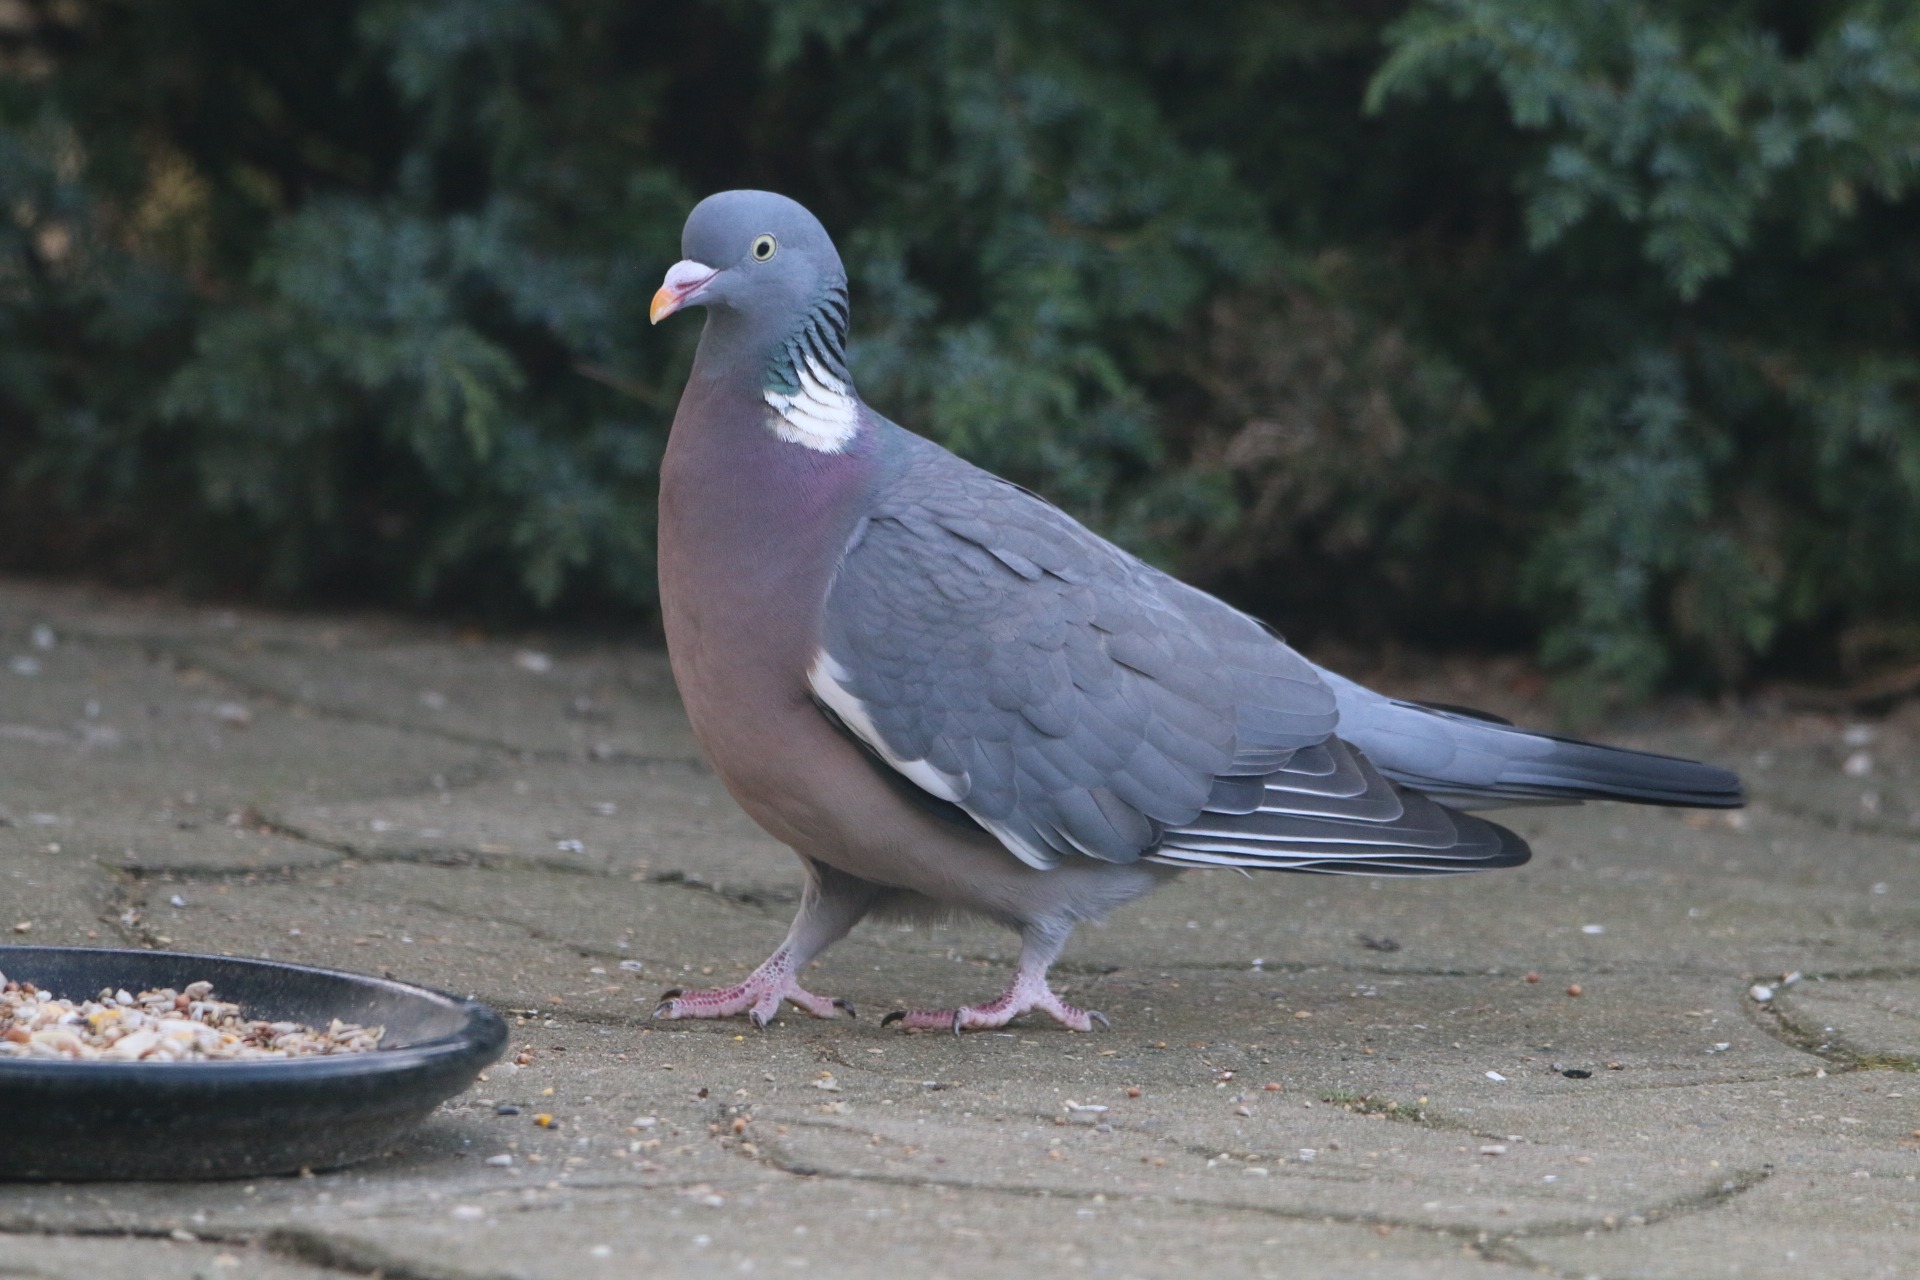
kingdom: Animalia
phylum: Chordata
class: Aves
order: Columbiformes
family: Columbidae
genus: Columba
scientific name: Columba palumbus
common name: Ringdue
